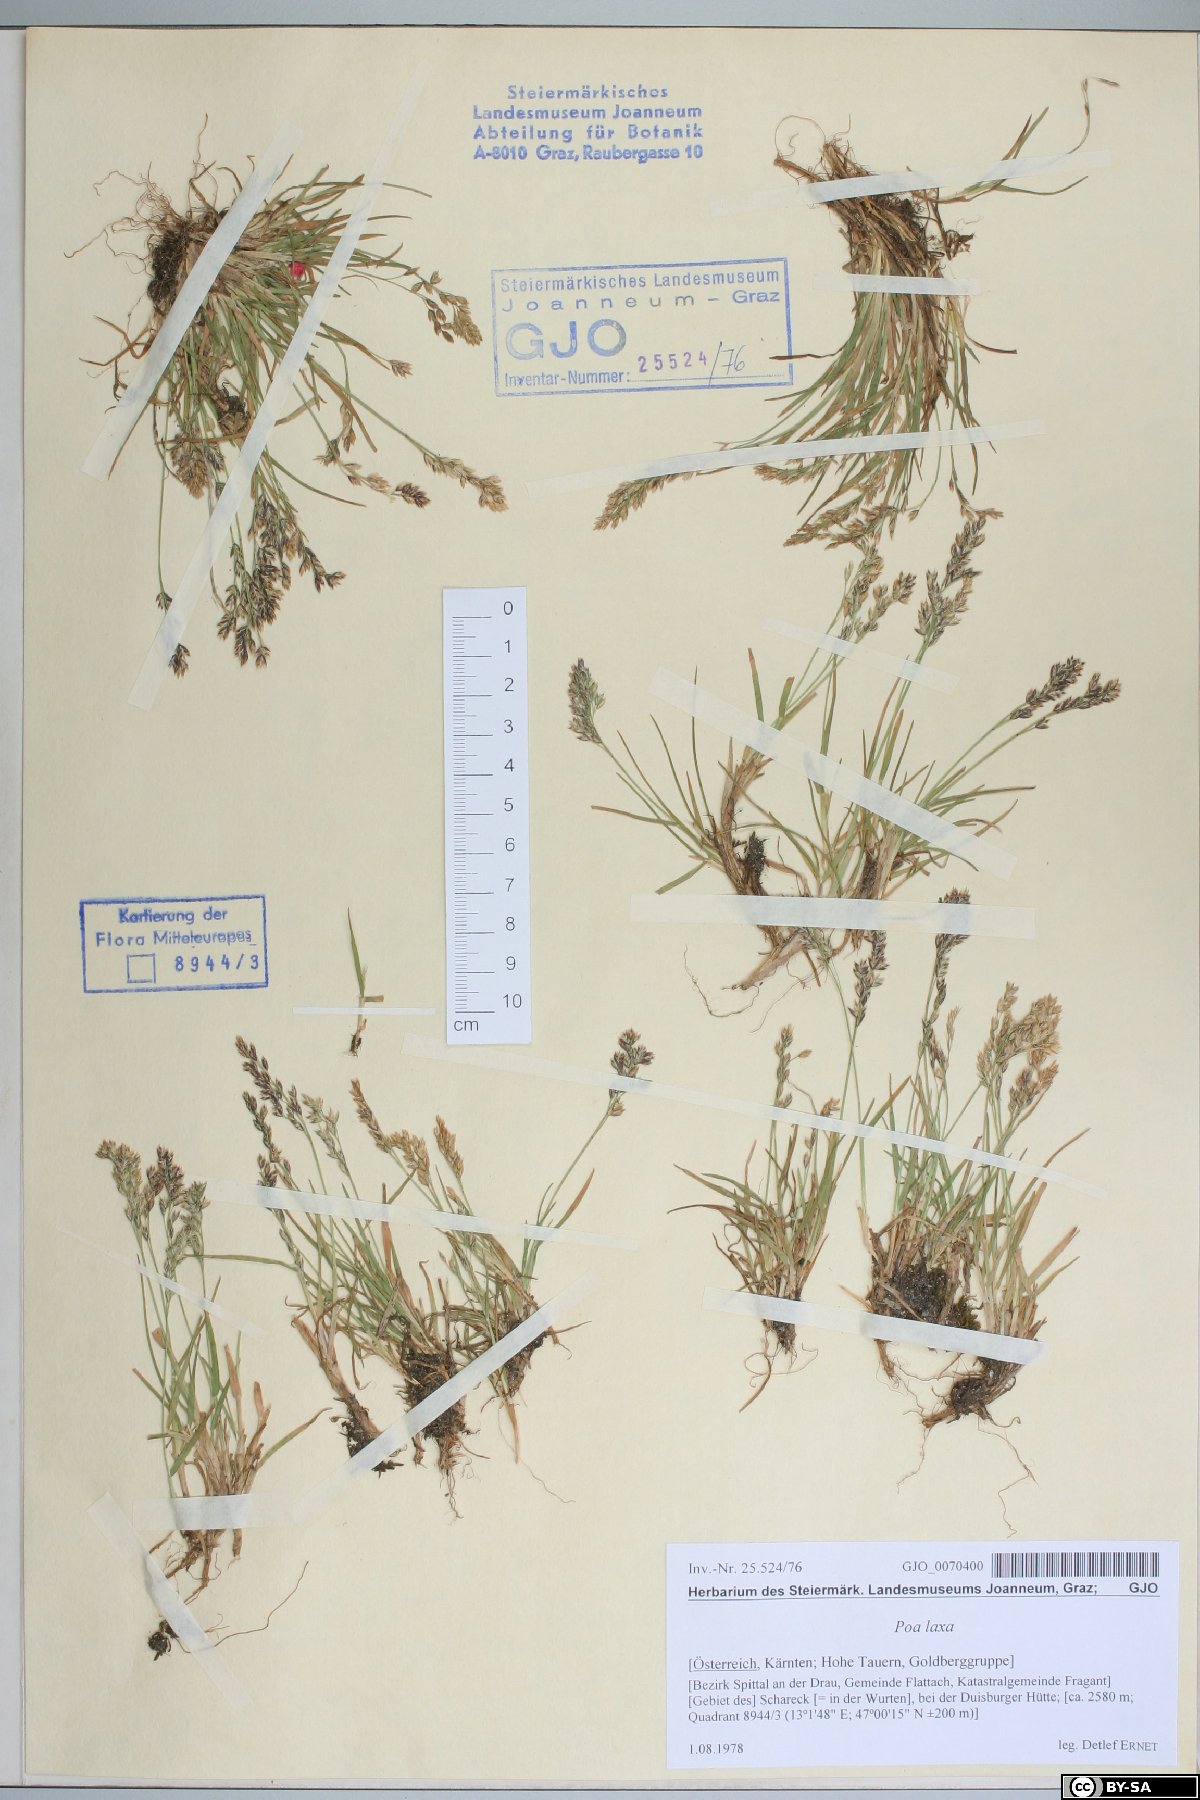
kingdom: Plantae
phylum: Tracheophyta
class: Liliopsida
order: Poales
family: Poaceae
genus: Poa
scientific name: Poa laxa
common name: Lax bluegrass
